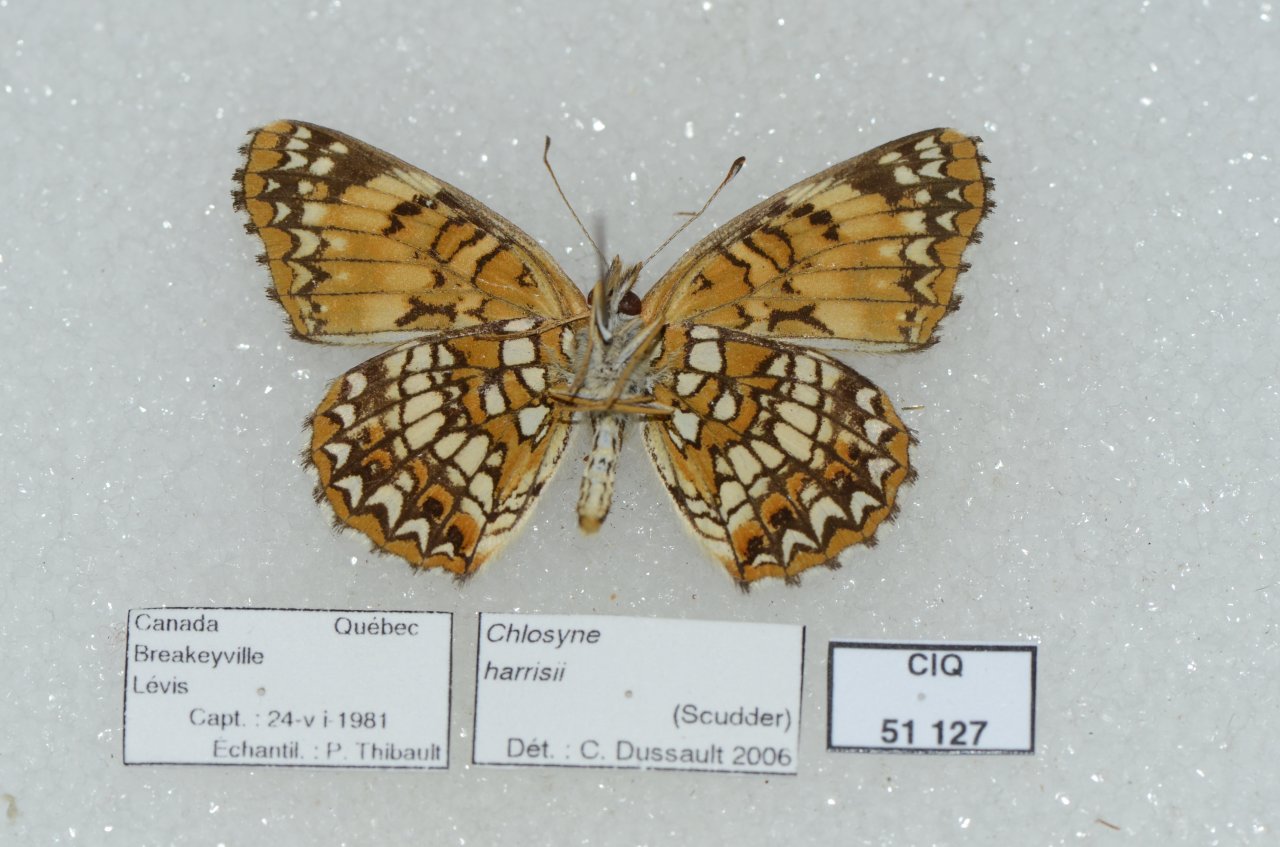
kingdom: Animalia
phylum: Arthropoda
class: Insecta
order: Lepidoptera
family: Nymphalidae
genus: Chlosyne
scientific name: Chlosyne harrisii
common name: Harris's Checkerspot
